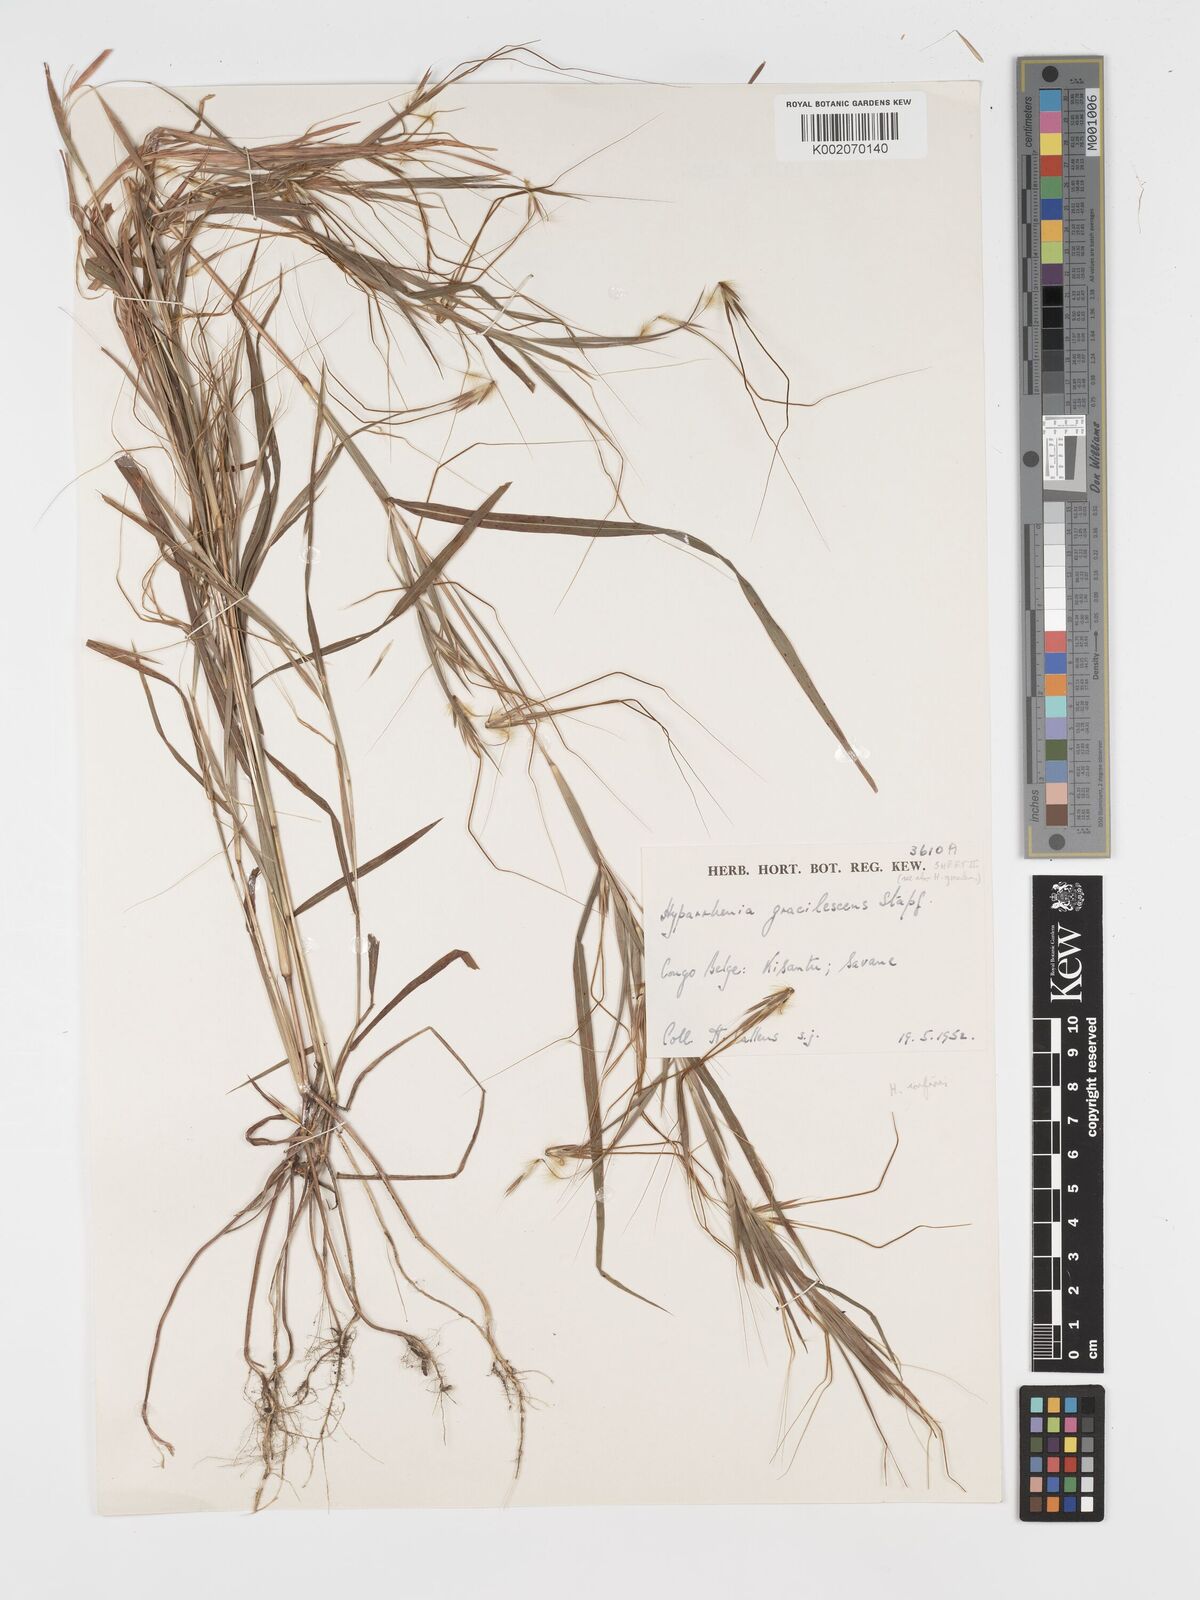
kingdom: Plantae
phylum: Tracheophyta
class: Liliopsida
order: Poales
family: Poaceae
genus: Hyparrhenia
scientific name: Hyparrhenia niariensis
